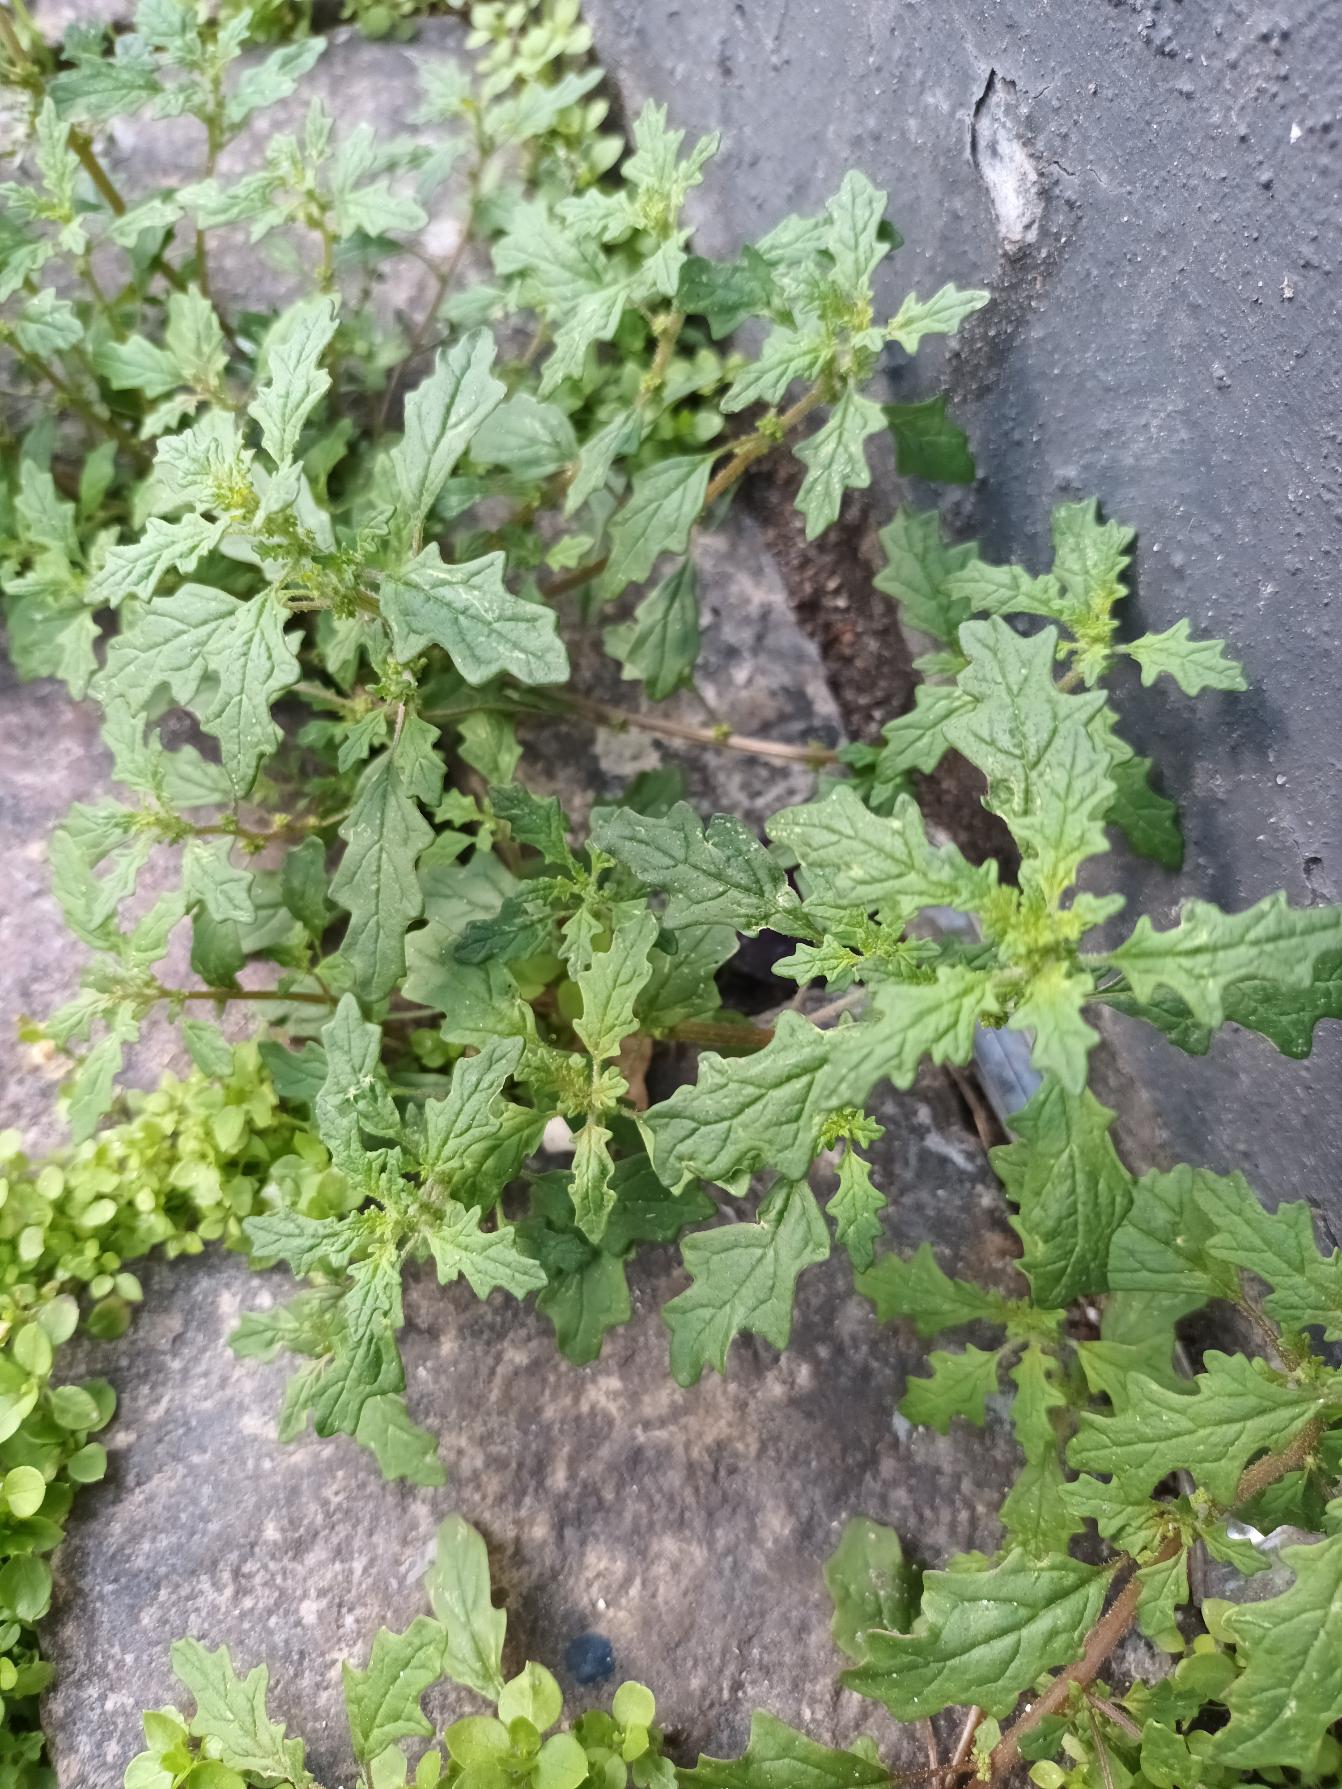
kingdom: Plantae
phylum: Tracheophyta
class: Magnoliopsida
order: Caryophyllales
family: Amaranthaceae
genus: Dysphania
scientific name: Dysphania pumilio
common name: Dværg-gåsefod
